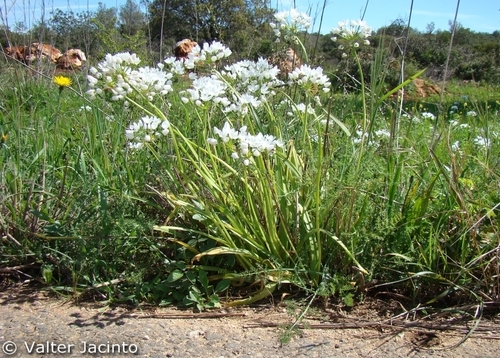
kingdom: Plantae
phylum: Tracheophyta
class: Liliopsida
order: Asparagales
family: Amaryllidaceae
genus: Allium
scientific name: Allium neapolitanum
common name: Neapolitan garlic
